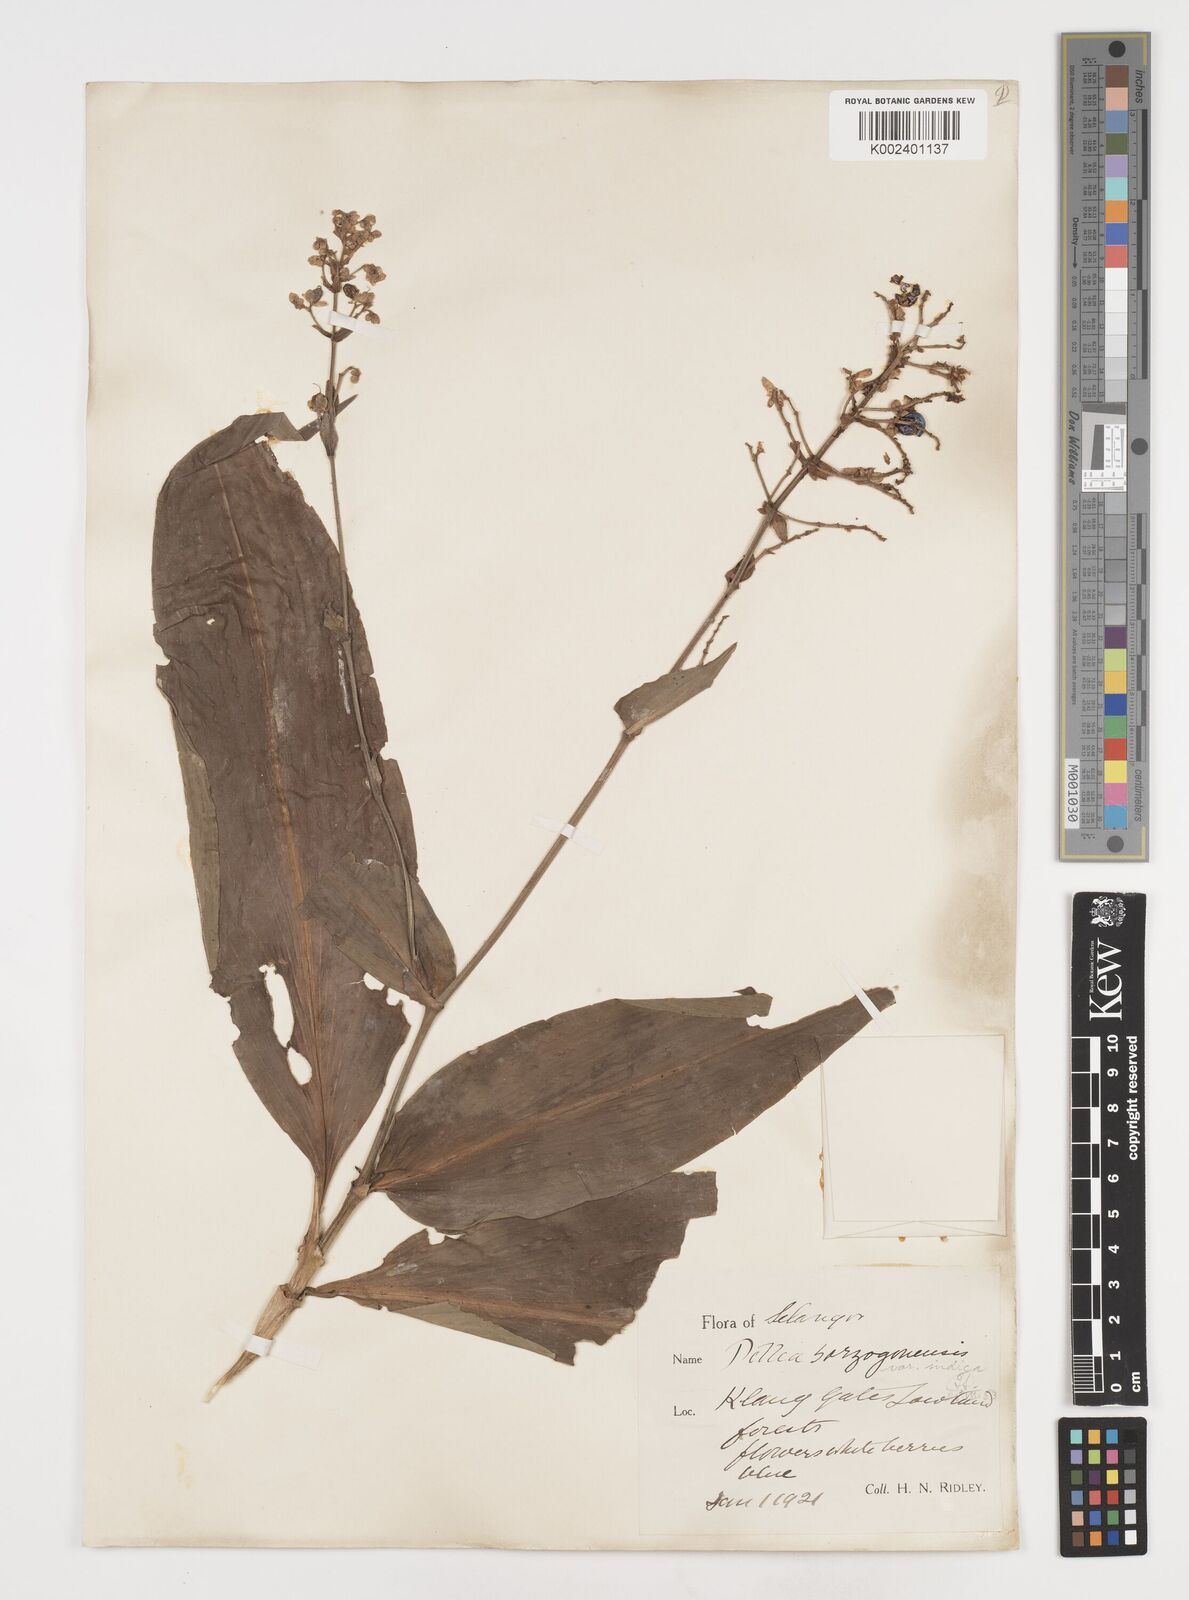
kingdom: Plantae
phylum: Tracheophyta
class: Liliopsida
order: Commelinales
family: Commelinaceae
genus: Pollia
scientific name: Pollia secundiflora
